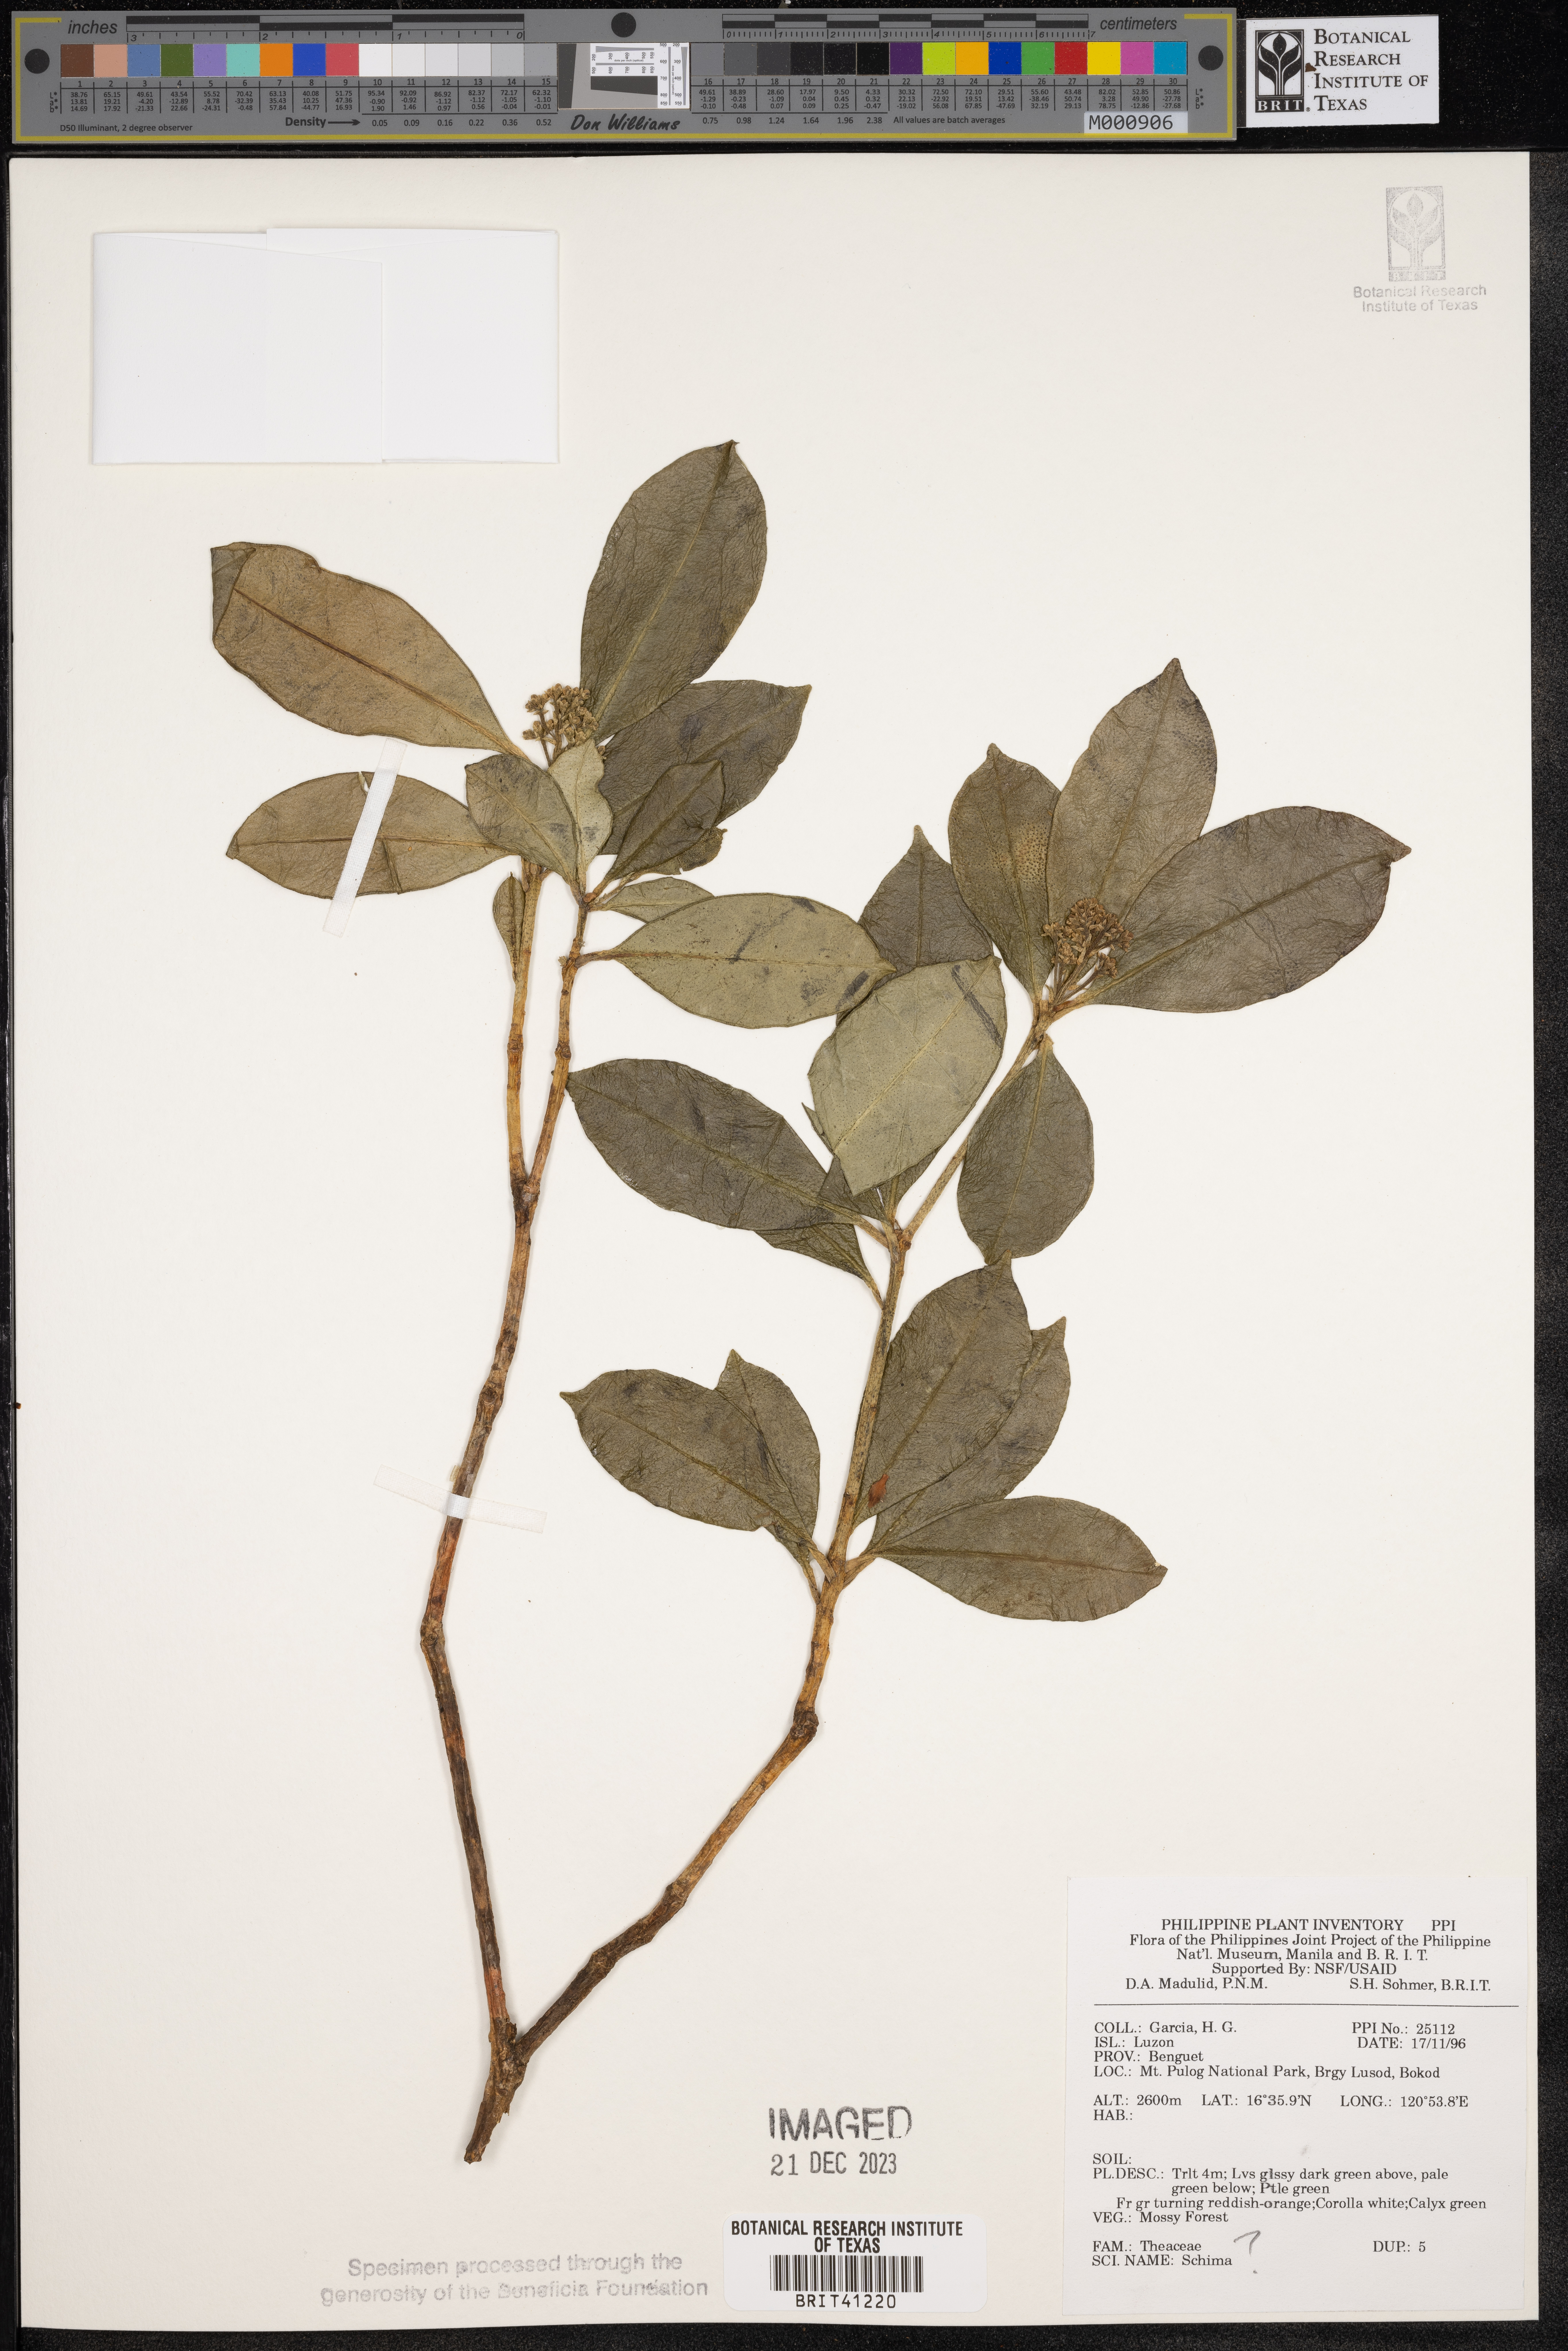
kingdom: Plantae
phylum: Tracheophyta
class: Magnoliopsida
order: Ericales
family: Theaceae
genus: Schima
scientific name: Schima
